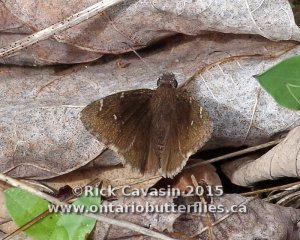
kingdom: Animalia
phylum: Arthropoda
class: Insecta
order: Lepidoptera
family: Hesperiidae
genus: Autochton
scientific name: Autochton
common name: Northern Cloudywing
